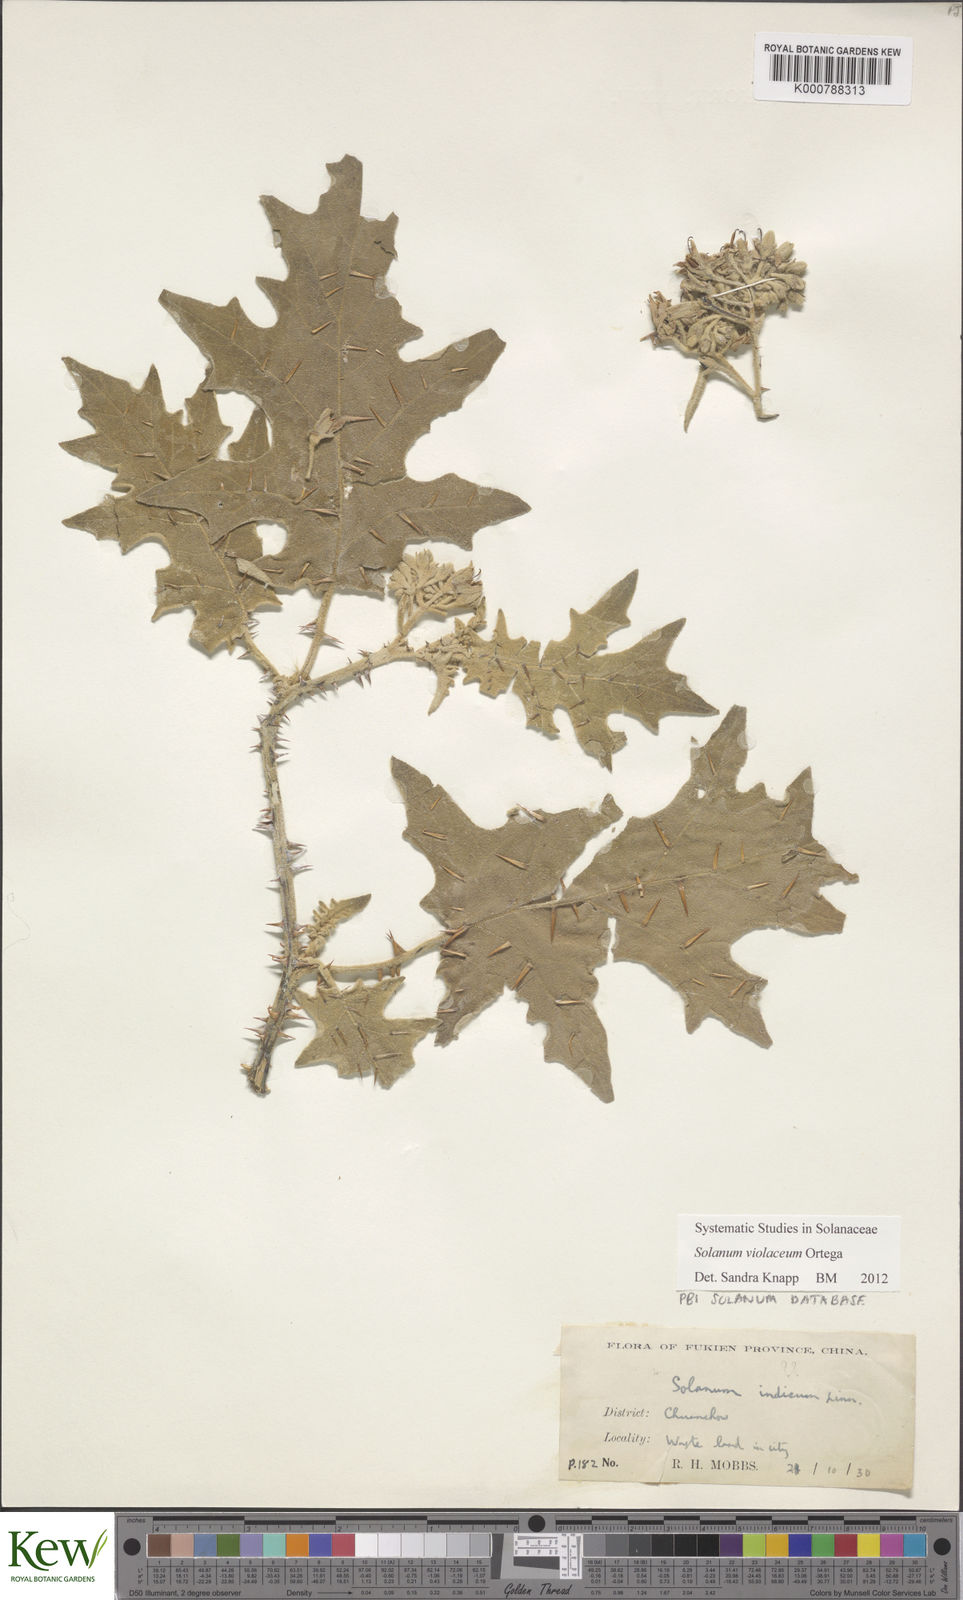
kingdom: Plantae
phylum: Tracheophyta
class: Magnoliopsida
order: Solanales
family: Solanaceae
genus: Solanum
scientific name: Solanum violaceum
